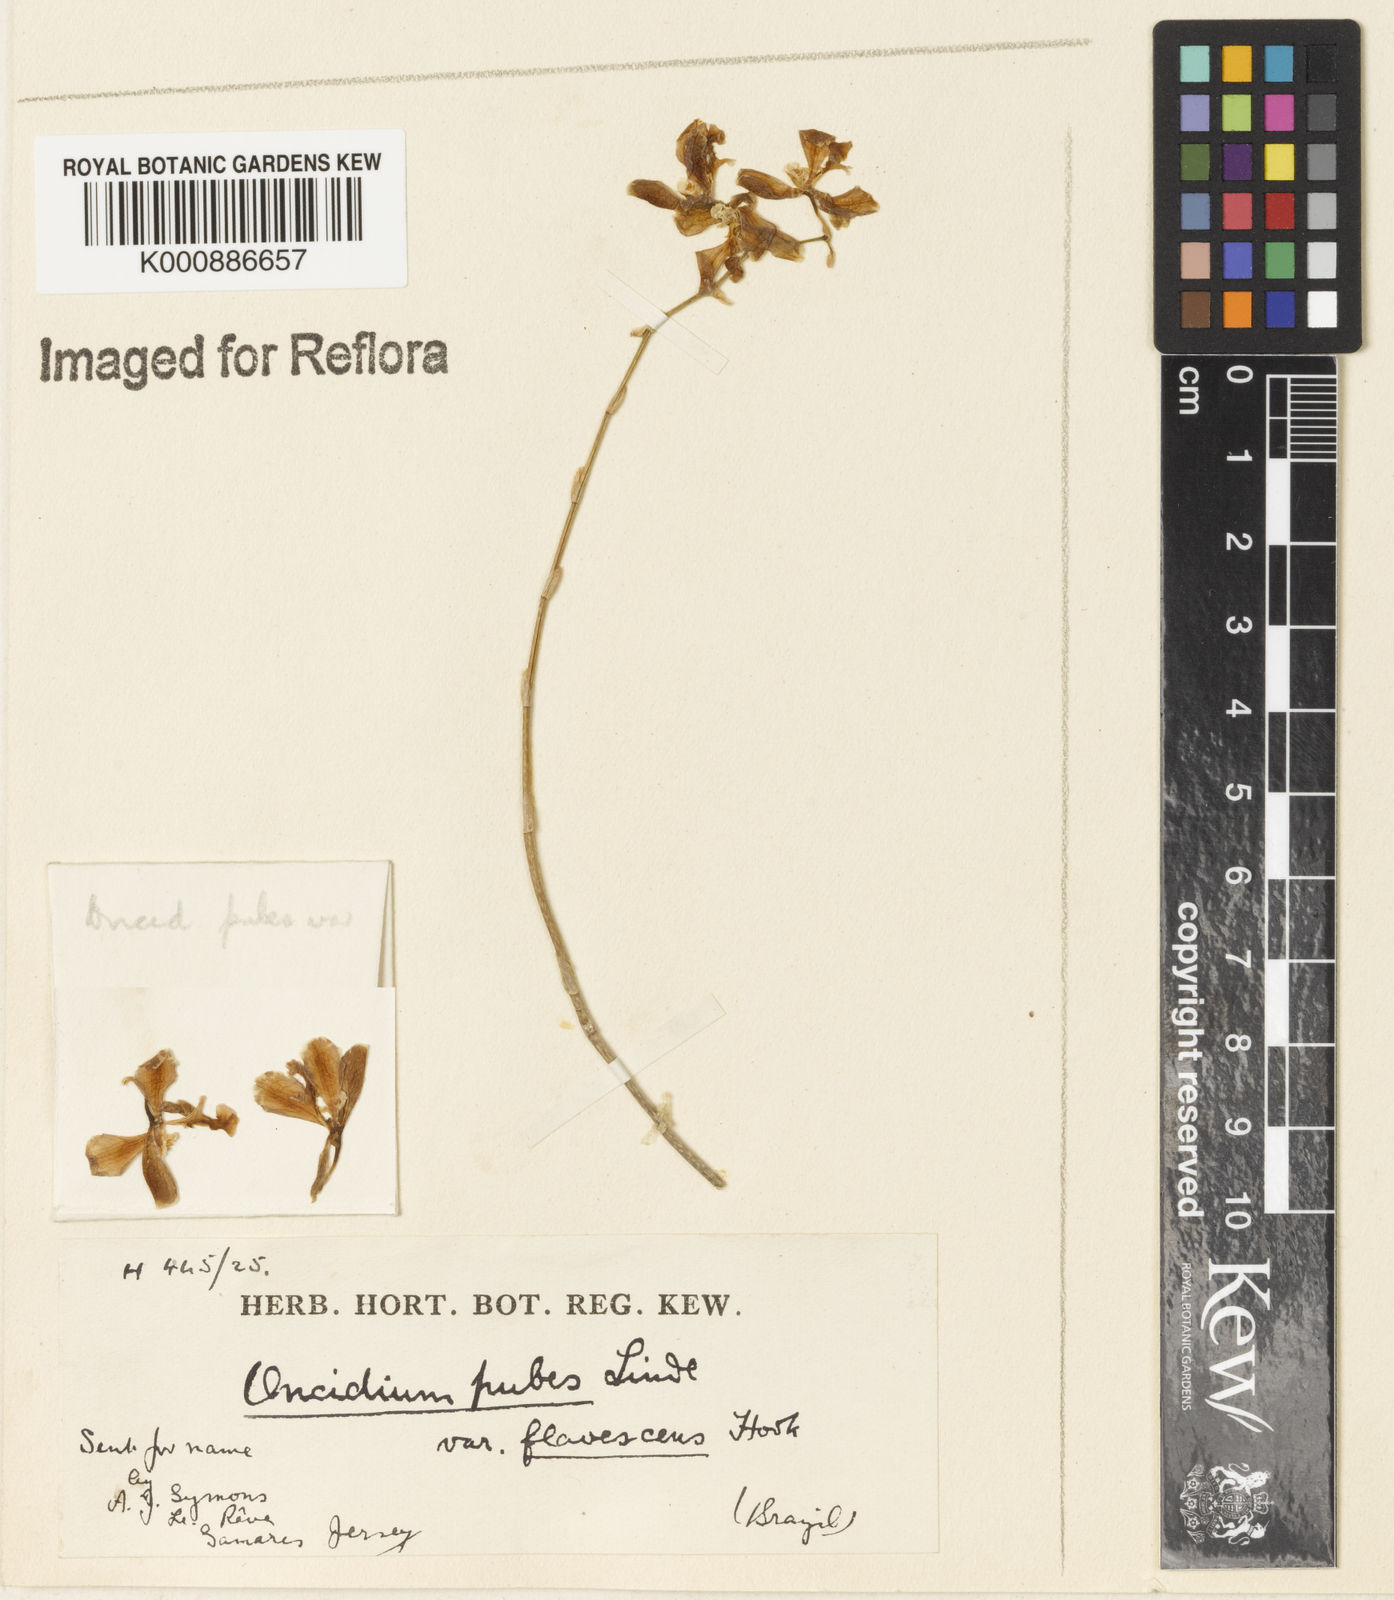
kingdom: Plantae
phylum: Tracheophyta
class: Liliopsida
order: Asparagales
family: Orchidaceae
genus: Gomesa
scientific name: Gomesa pubes
